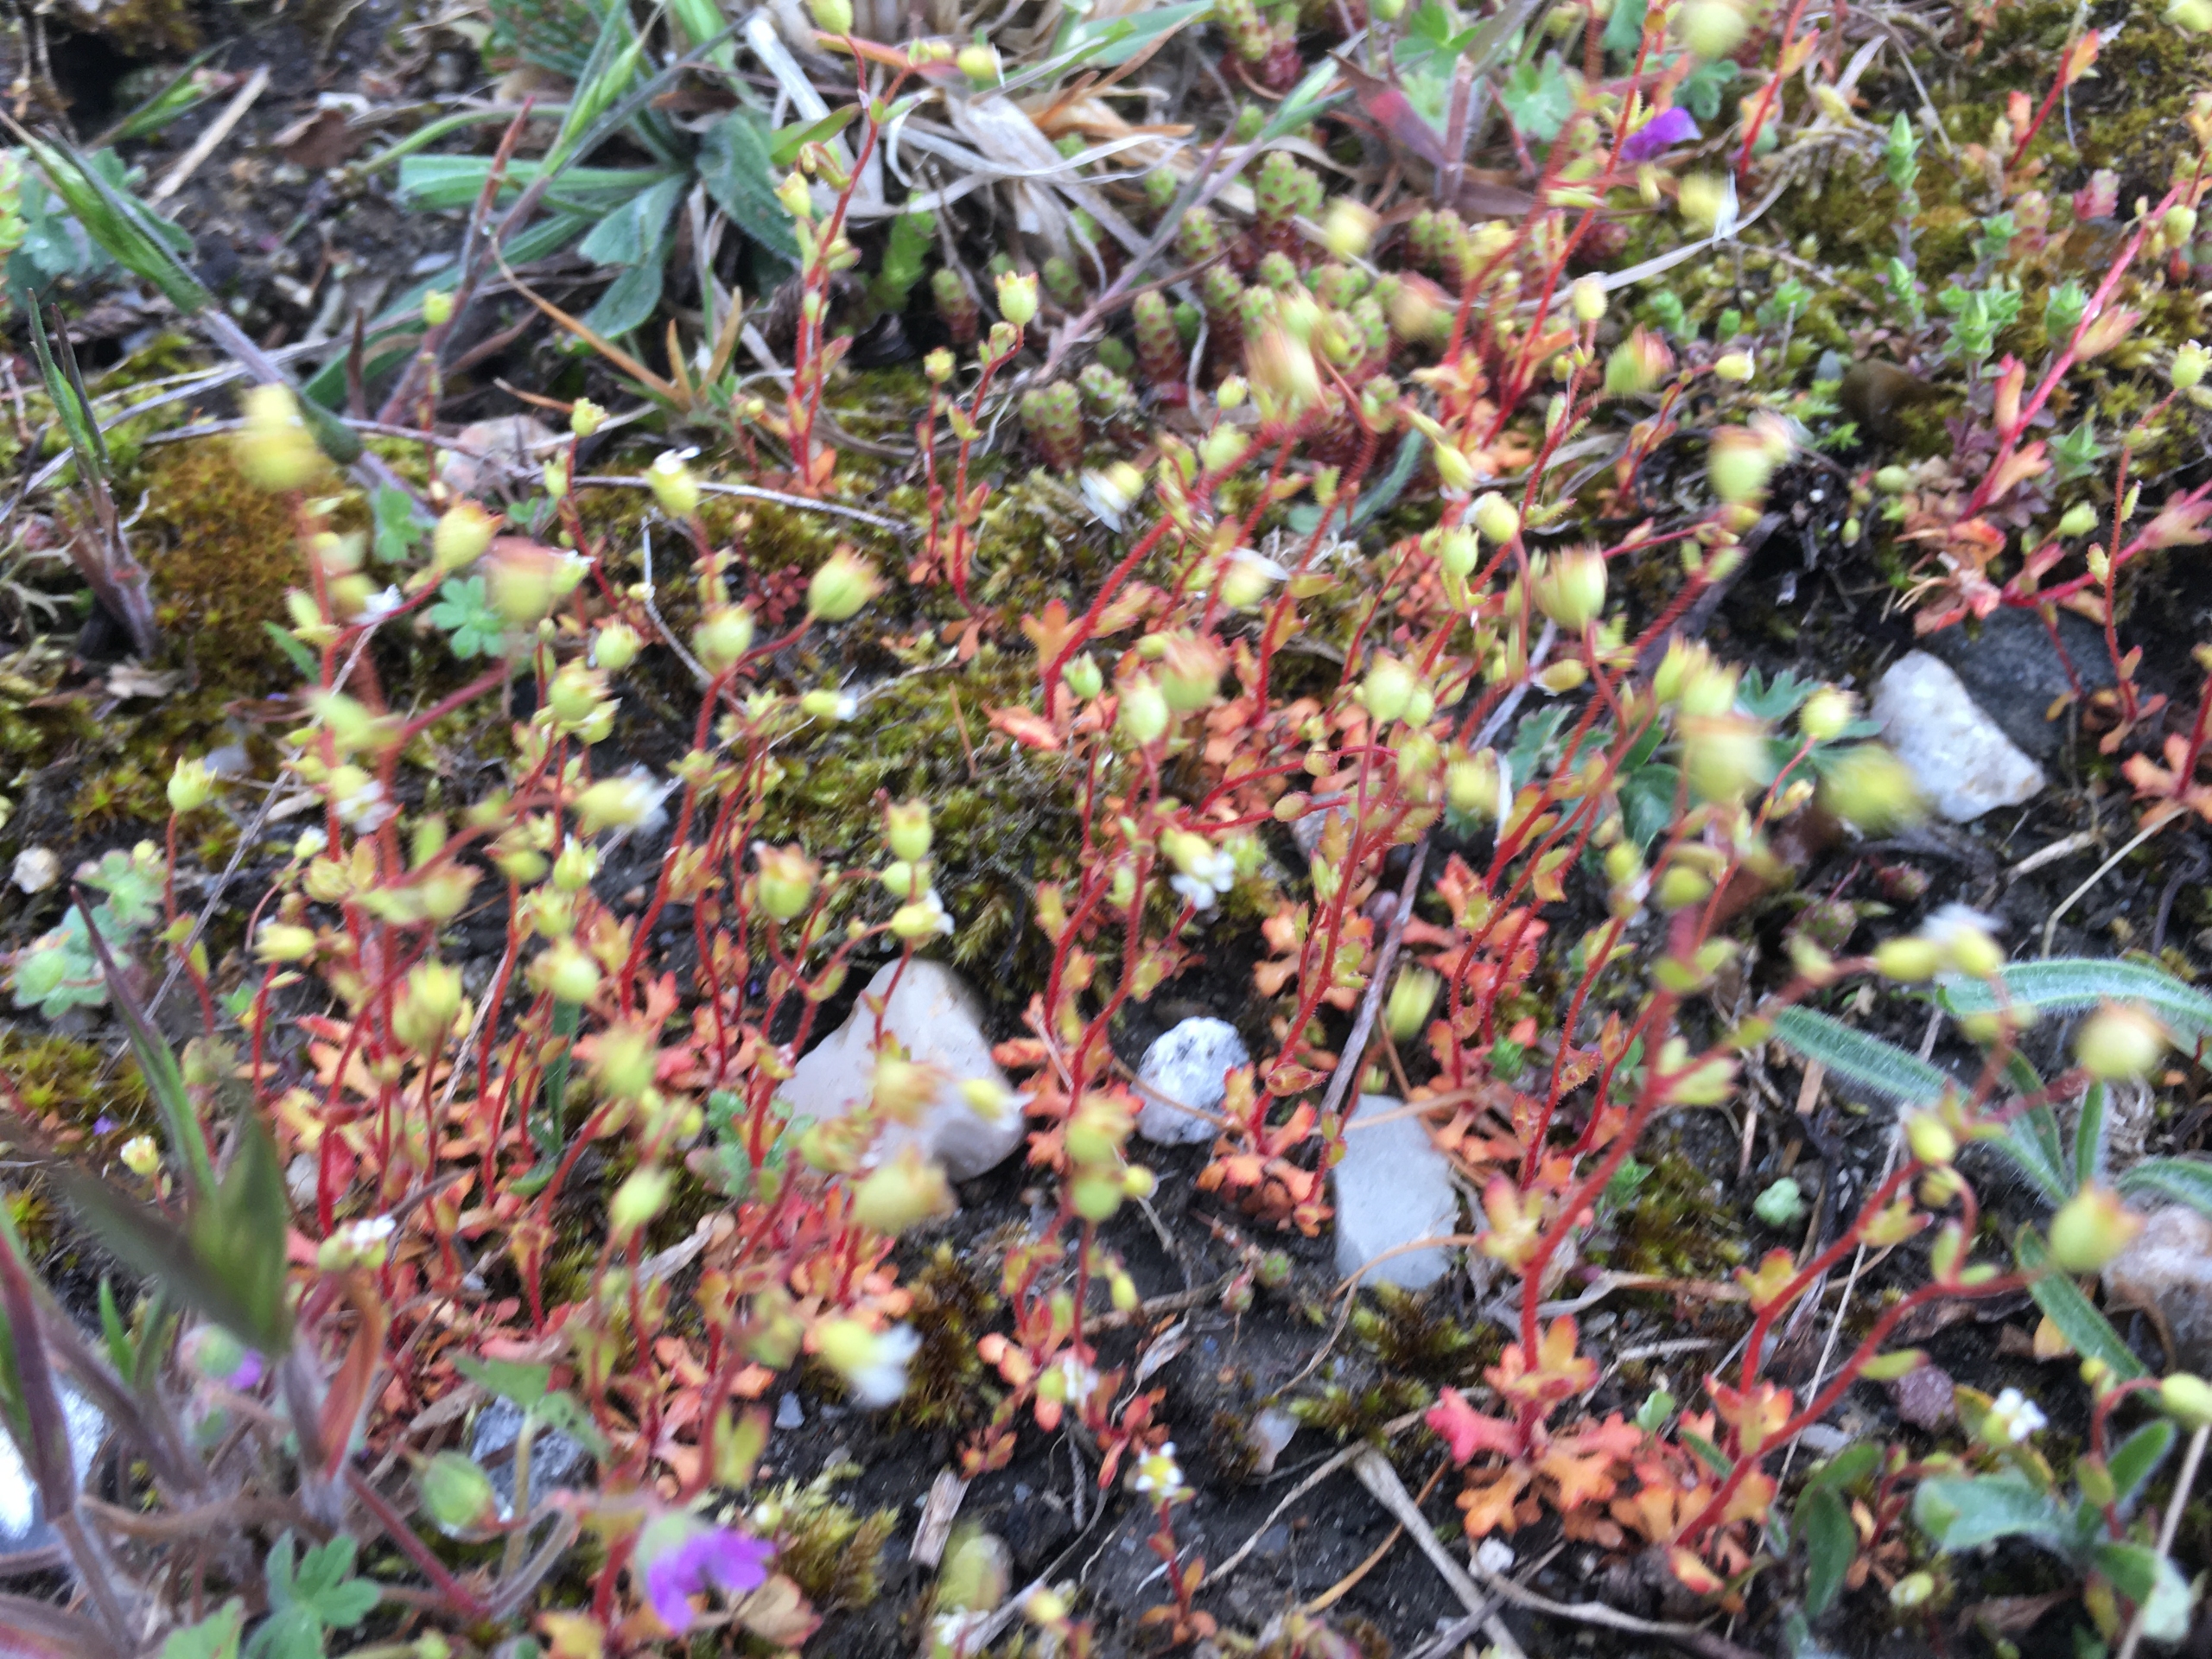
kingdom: Plantae
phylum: Tracheophyta
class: Magnoliopsida
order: Saxifragales
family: Saxifragaceae
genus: Saxifraga
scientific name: Saxifraga tridactylites
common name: Trekløft-stenbræk
